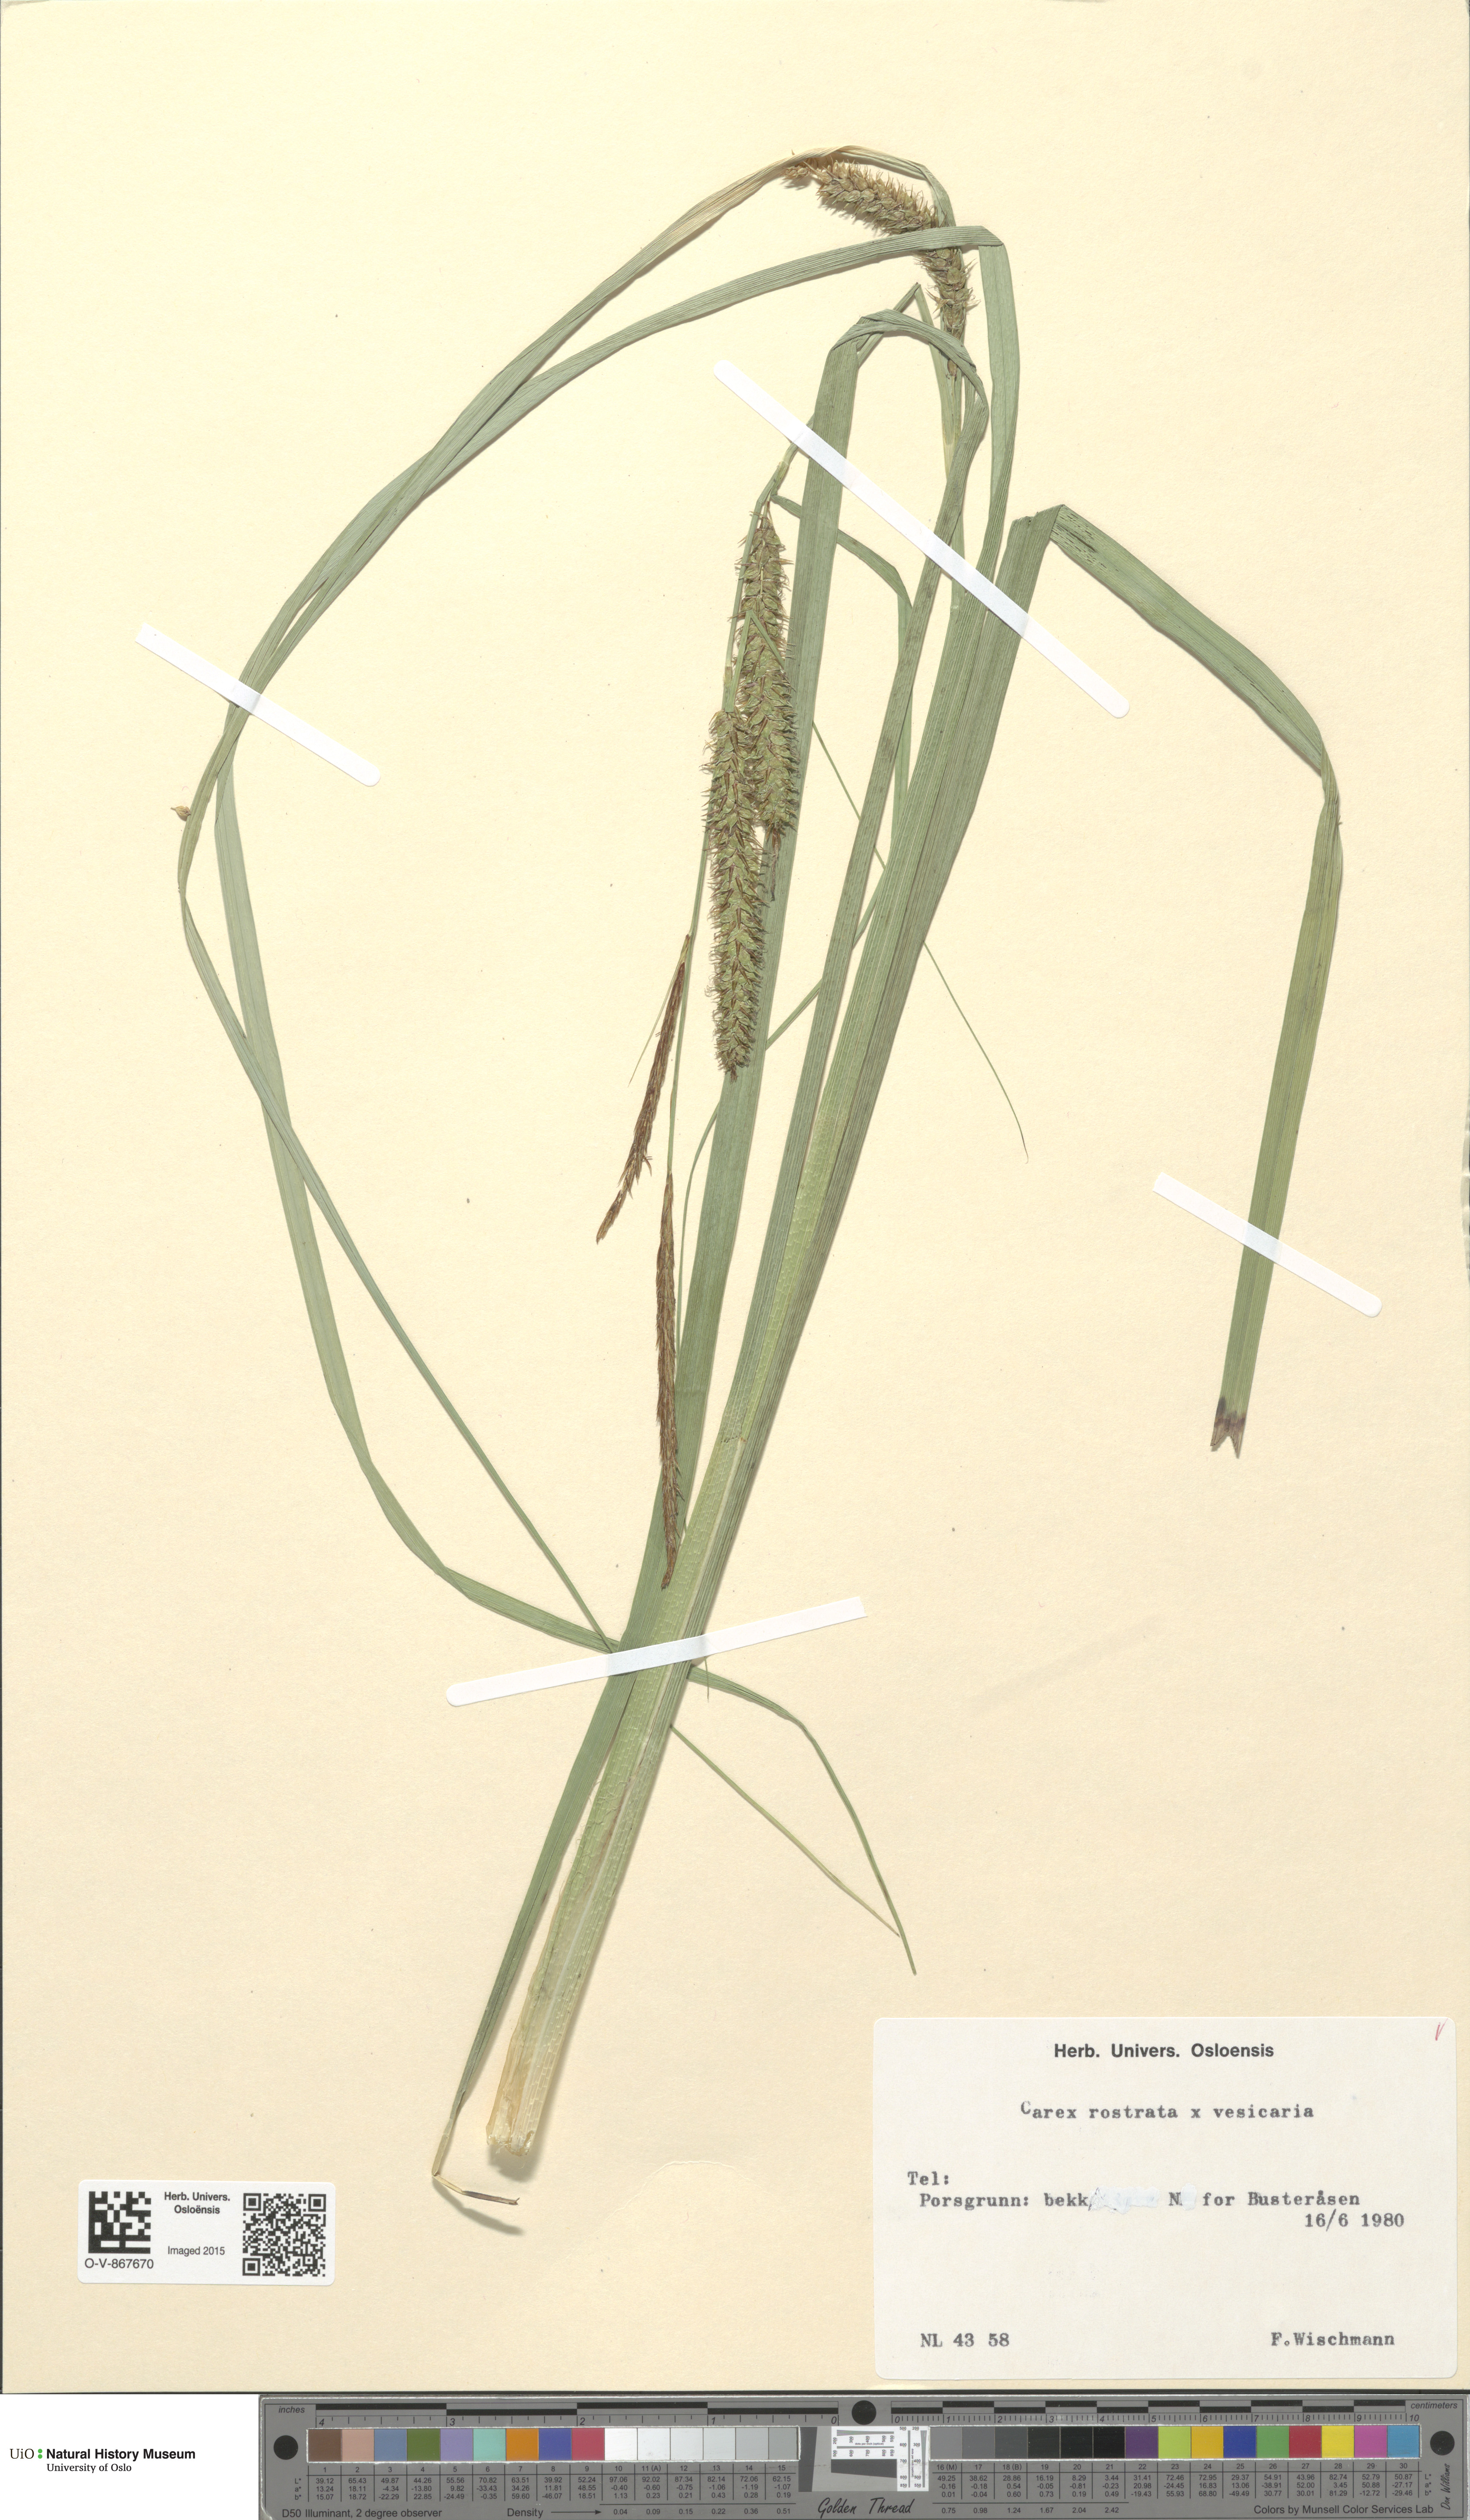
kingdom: Plantae
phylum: Tracheophyta
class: Liliopsida
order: Poales
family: Cyperaceae
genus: Carex
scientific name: Carex
